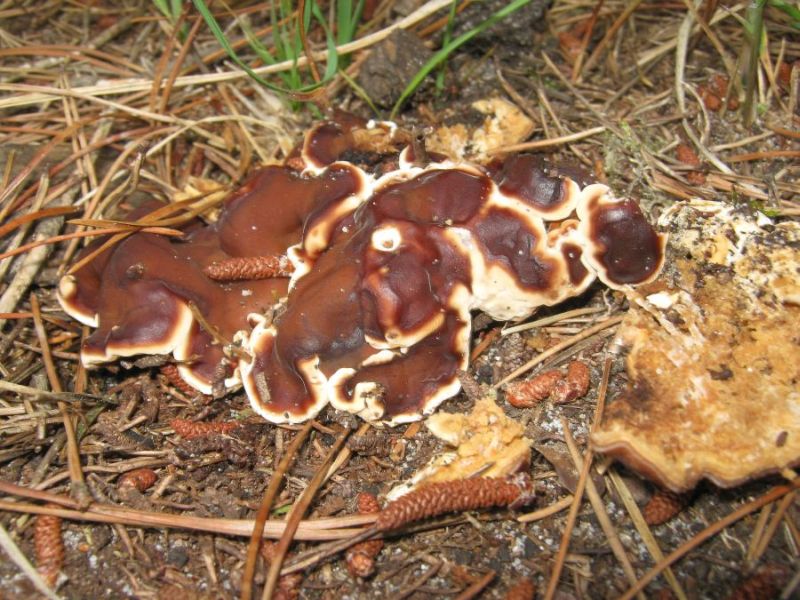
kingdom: Fungi
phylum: Ascomycota
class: Pezizomycetes
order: Pezizales
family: Rhizinaceae
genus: Rhizina
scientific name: Rhizina undulata
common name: rodmorkel
